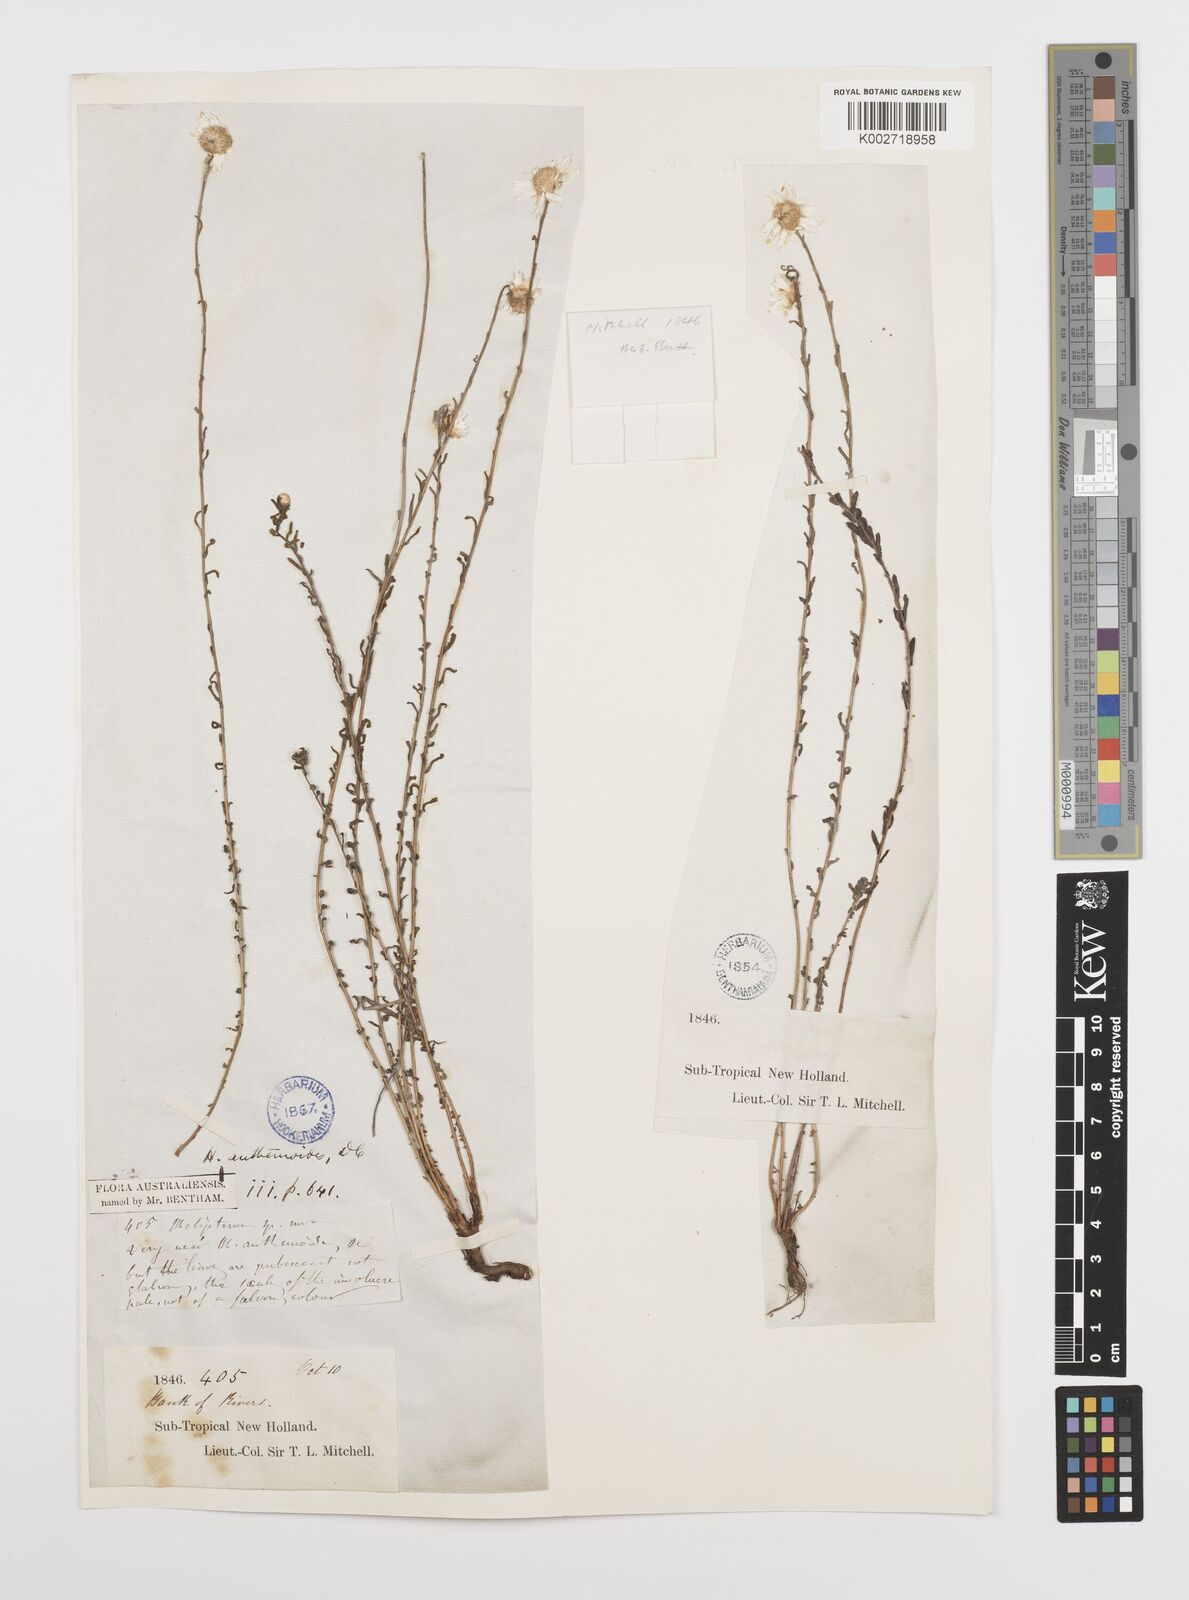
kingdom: Plantae
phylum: Tracheophyta
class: Magnoliopsida
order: Asterales
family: Asteraceae
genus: Rhodanthe
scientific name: Rhodanthe anthemoides
